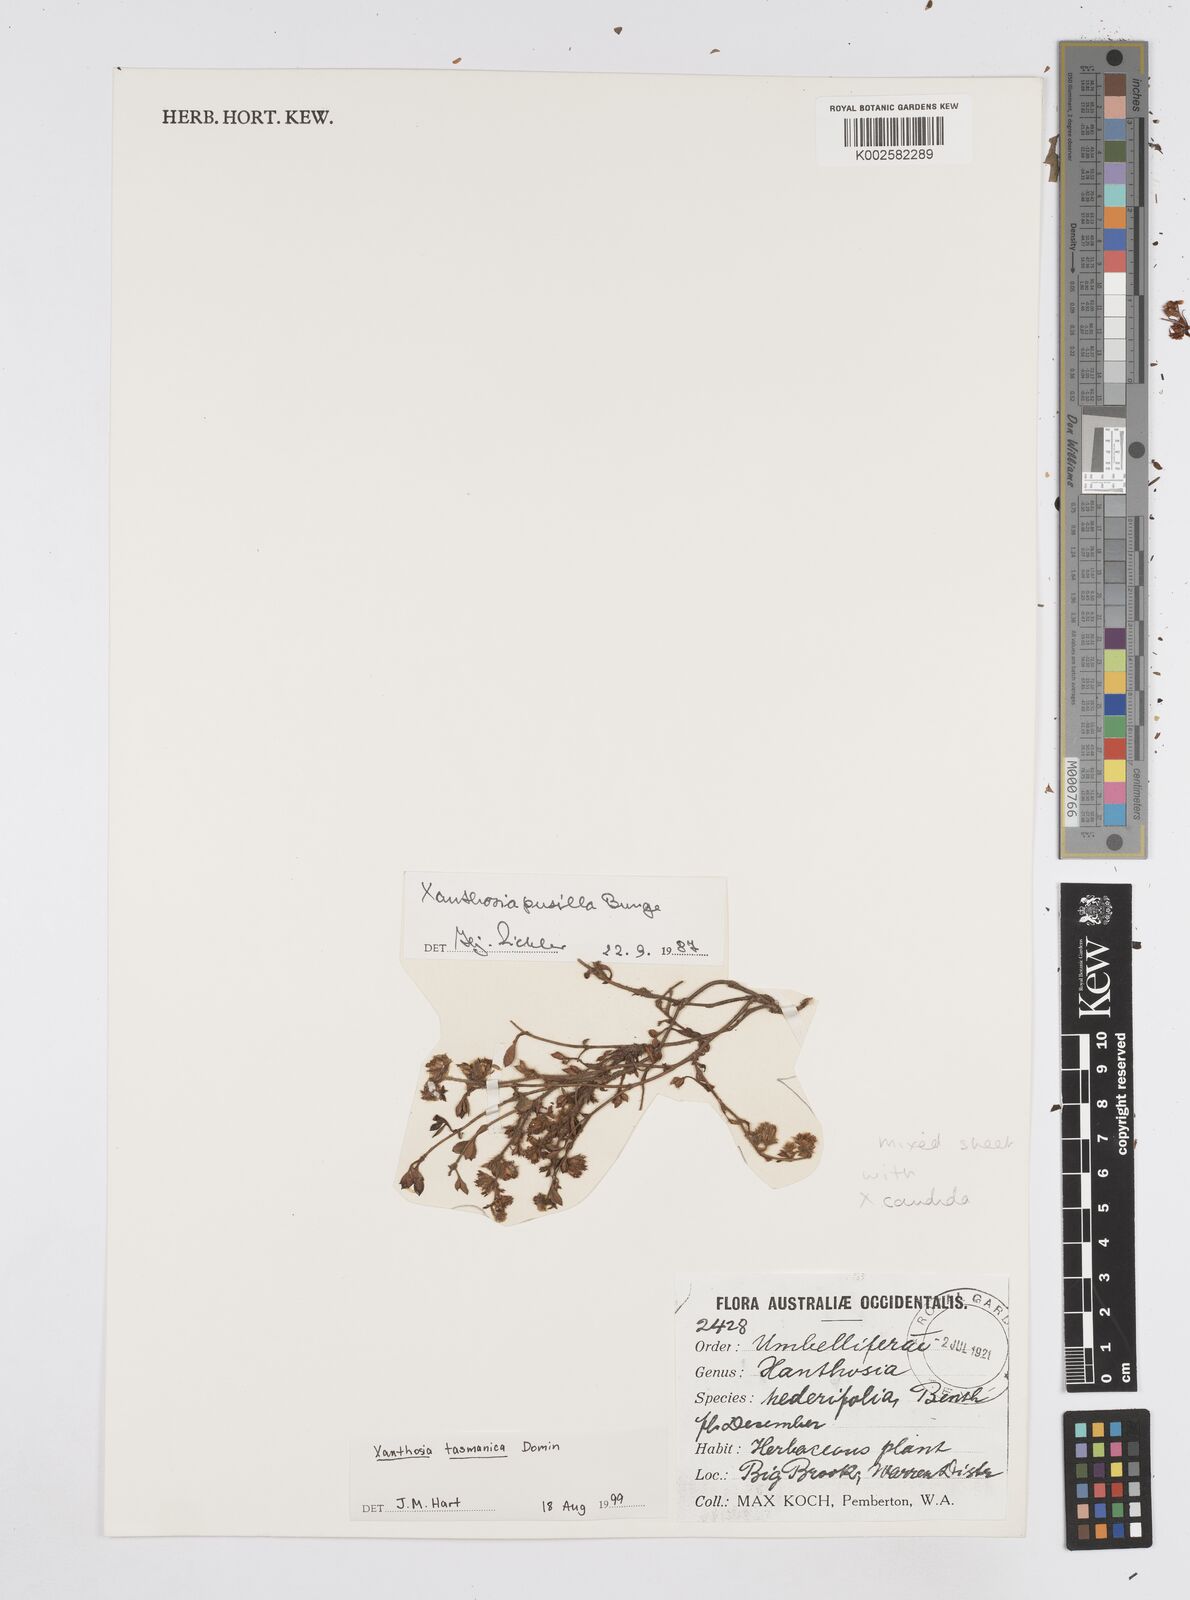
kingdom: Plantae
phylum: Tracheophyta
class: Magnoliopsida
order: Apiales
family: Apiaceae
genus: Xanthosia
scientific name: Xanthosia tasmanica
